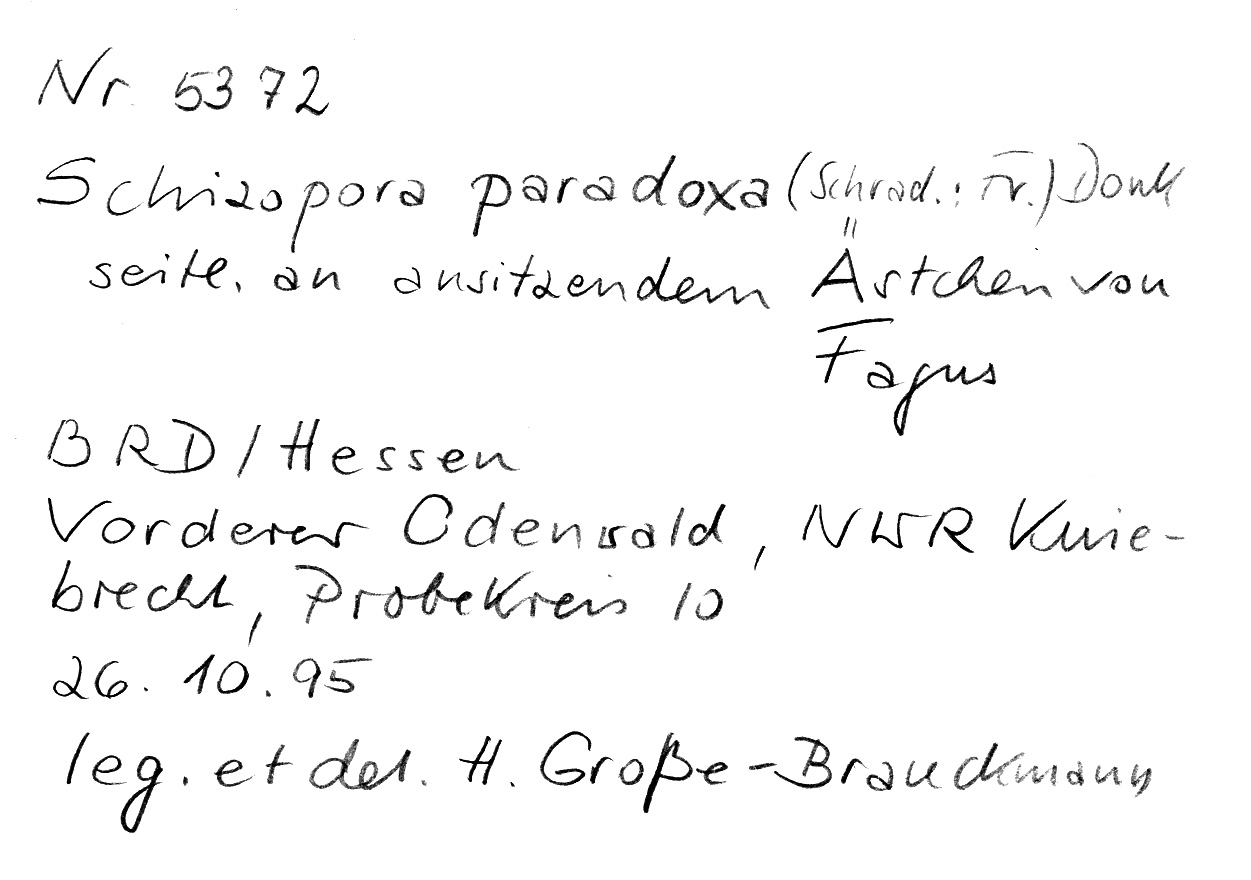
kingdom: Plantae
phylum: Tracheophyta
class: Magnoliopsida
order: Fagales
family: Fagaceae
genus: Fagus
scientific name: Fagus sylvatica
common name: Beech
